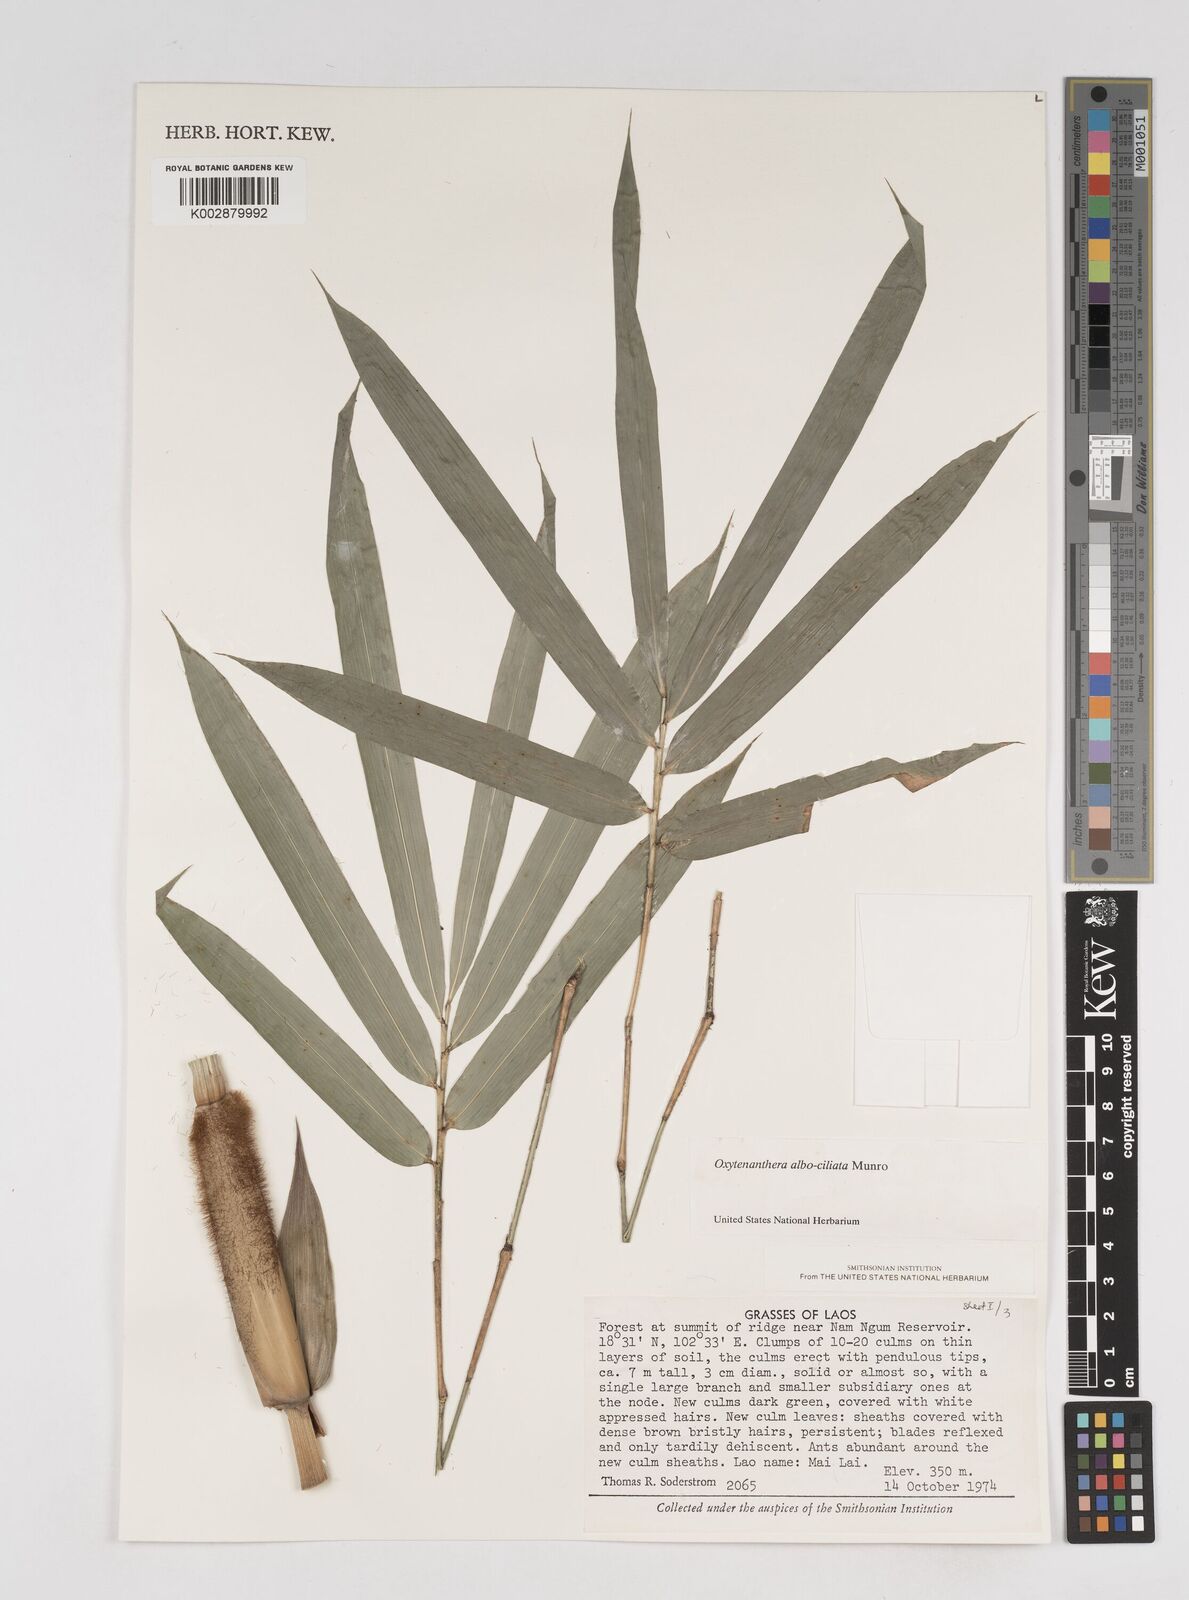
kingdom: Plantae
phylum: Tracheophyta
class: Liliopsida
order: Poales
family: Poaceae
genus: Gigantochloa
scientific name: Gigantochloa albociliata
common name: White-fringe gigantochloa
